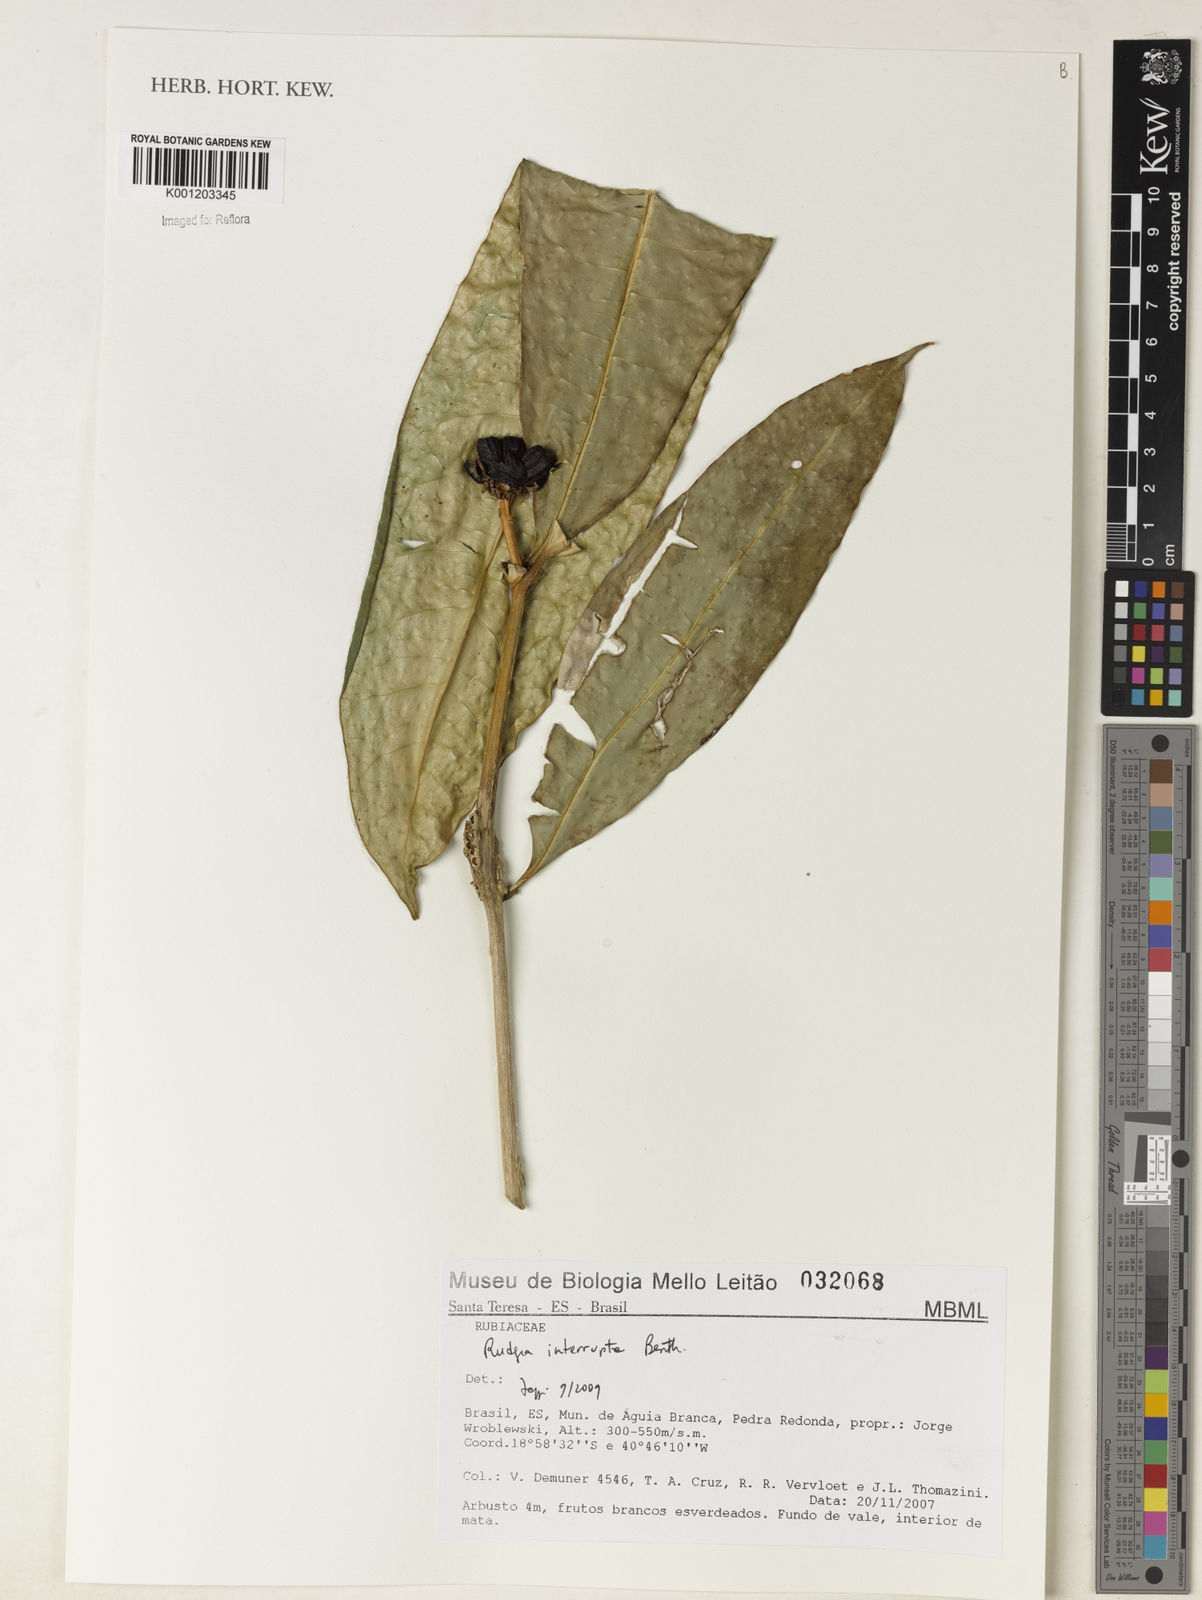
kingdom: Plantae
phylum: Tracheophyta
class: Magnoliopsida
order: Gentianales
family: Rubiaceae
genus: Rudgea
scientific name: Rudgea interrupta
